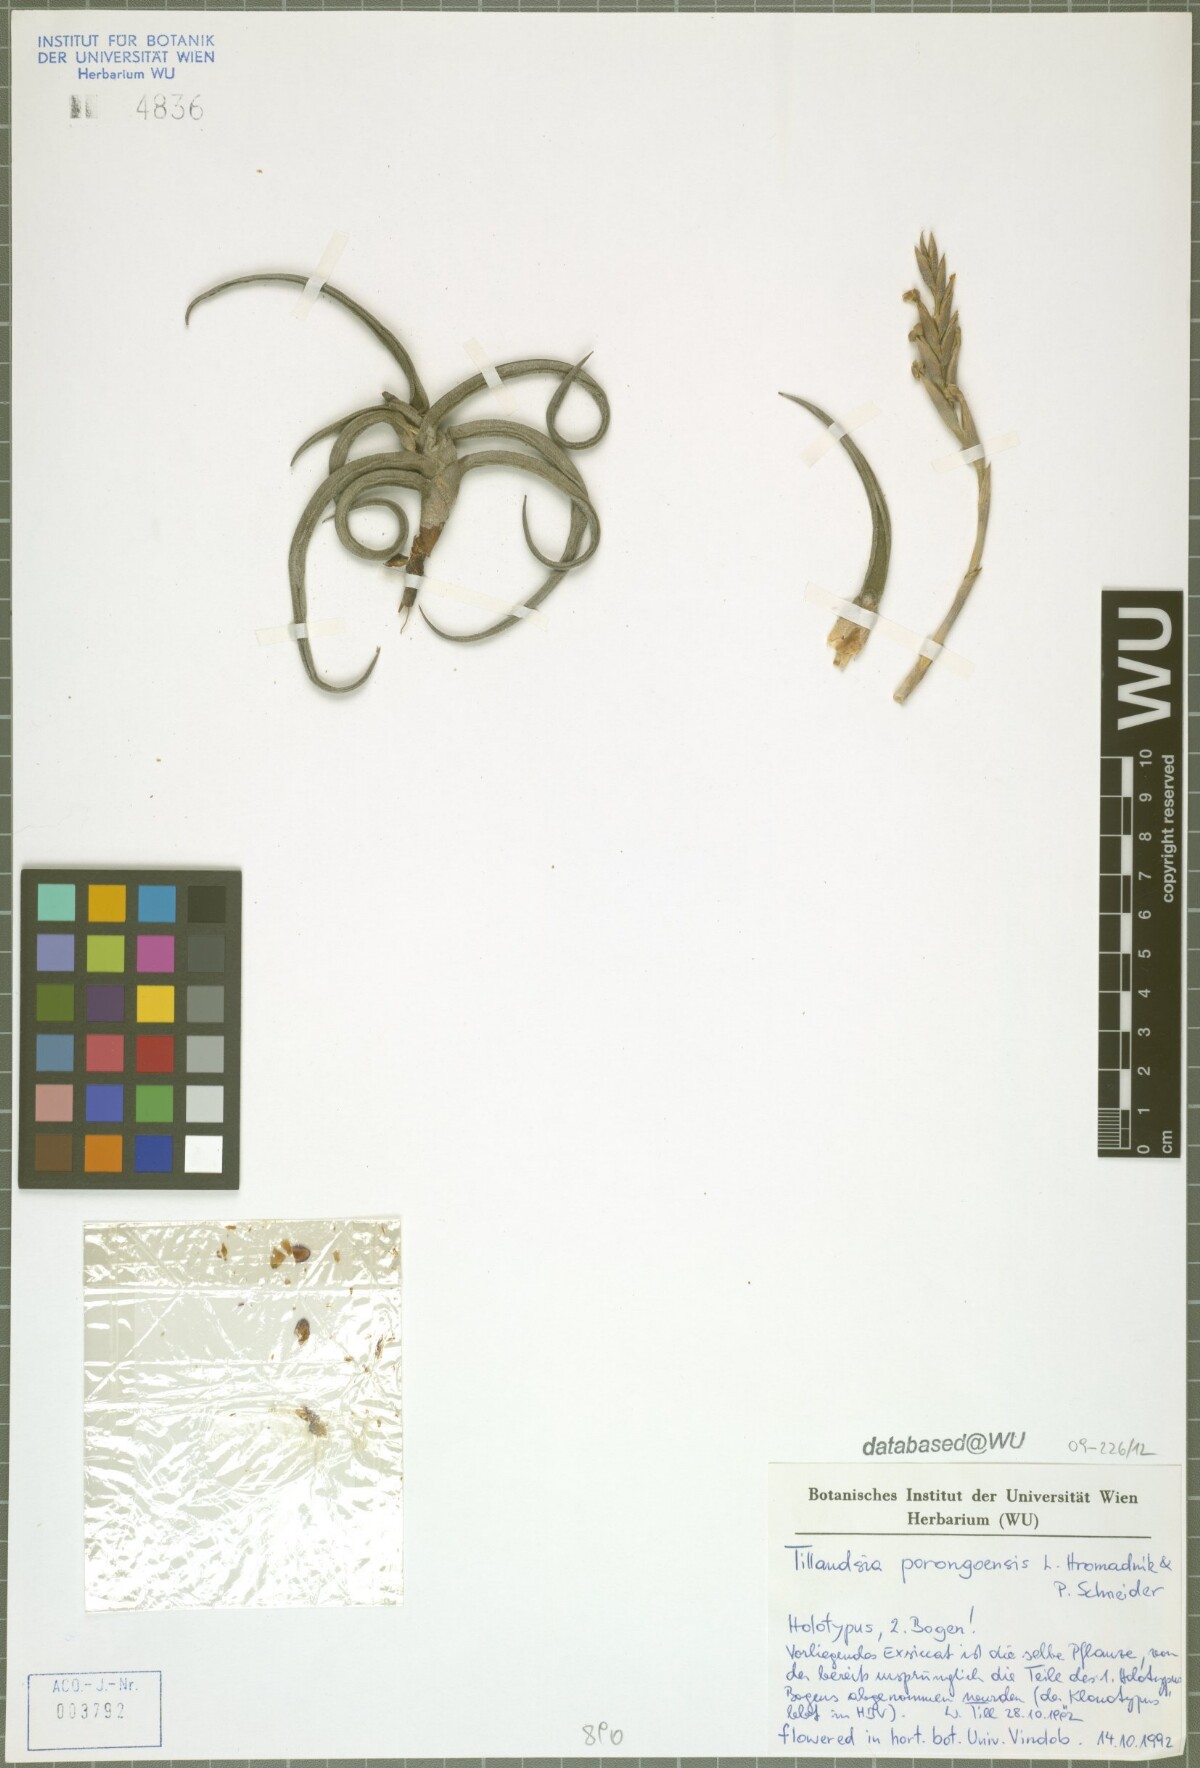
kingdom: Plantae
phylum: Tracheophyta
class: Liliopsida
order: Poales
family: Bromeliaceae
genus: Tillandsia
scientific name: Tillandsia porongoensis
